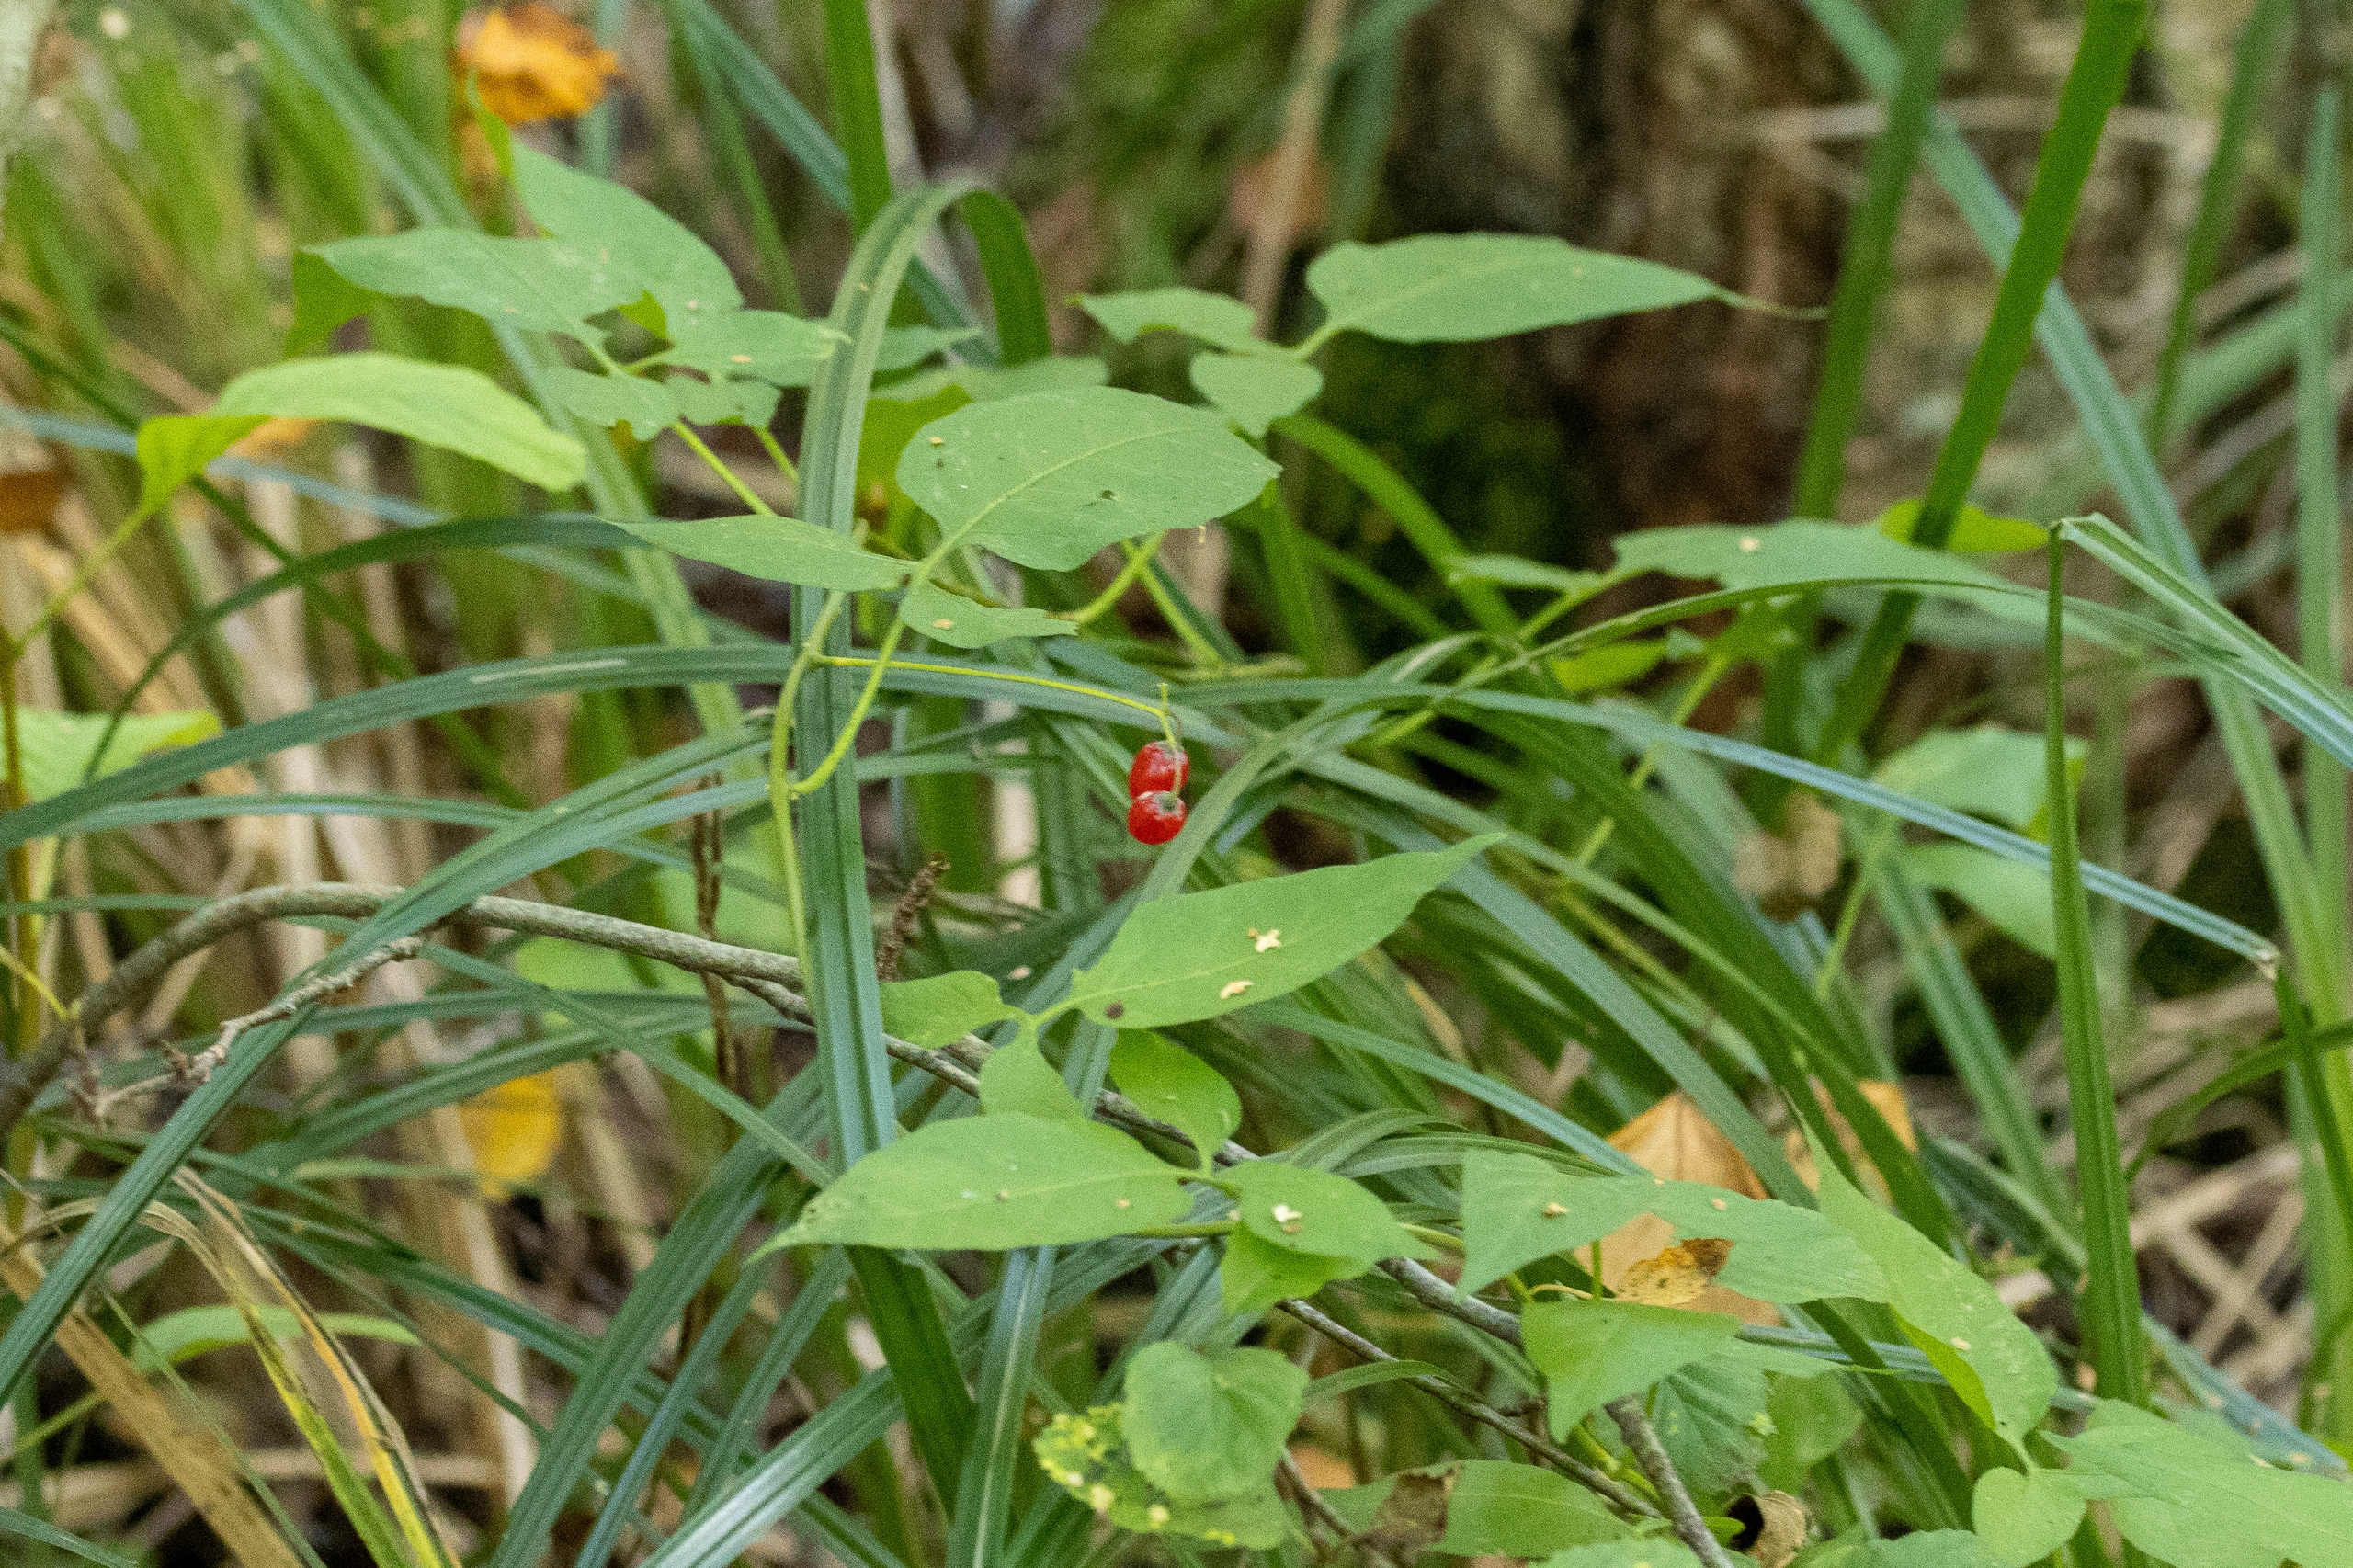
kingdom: Plantae
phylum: Tracheophyta
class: Magnoliopsida
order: Solanales
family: Solanaceae
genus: Solanum
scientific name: Solanum dulcamara
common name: Bittersød natskygge
